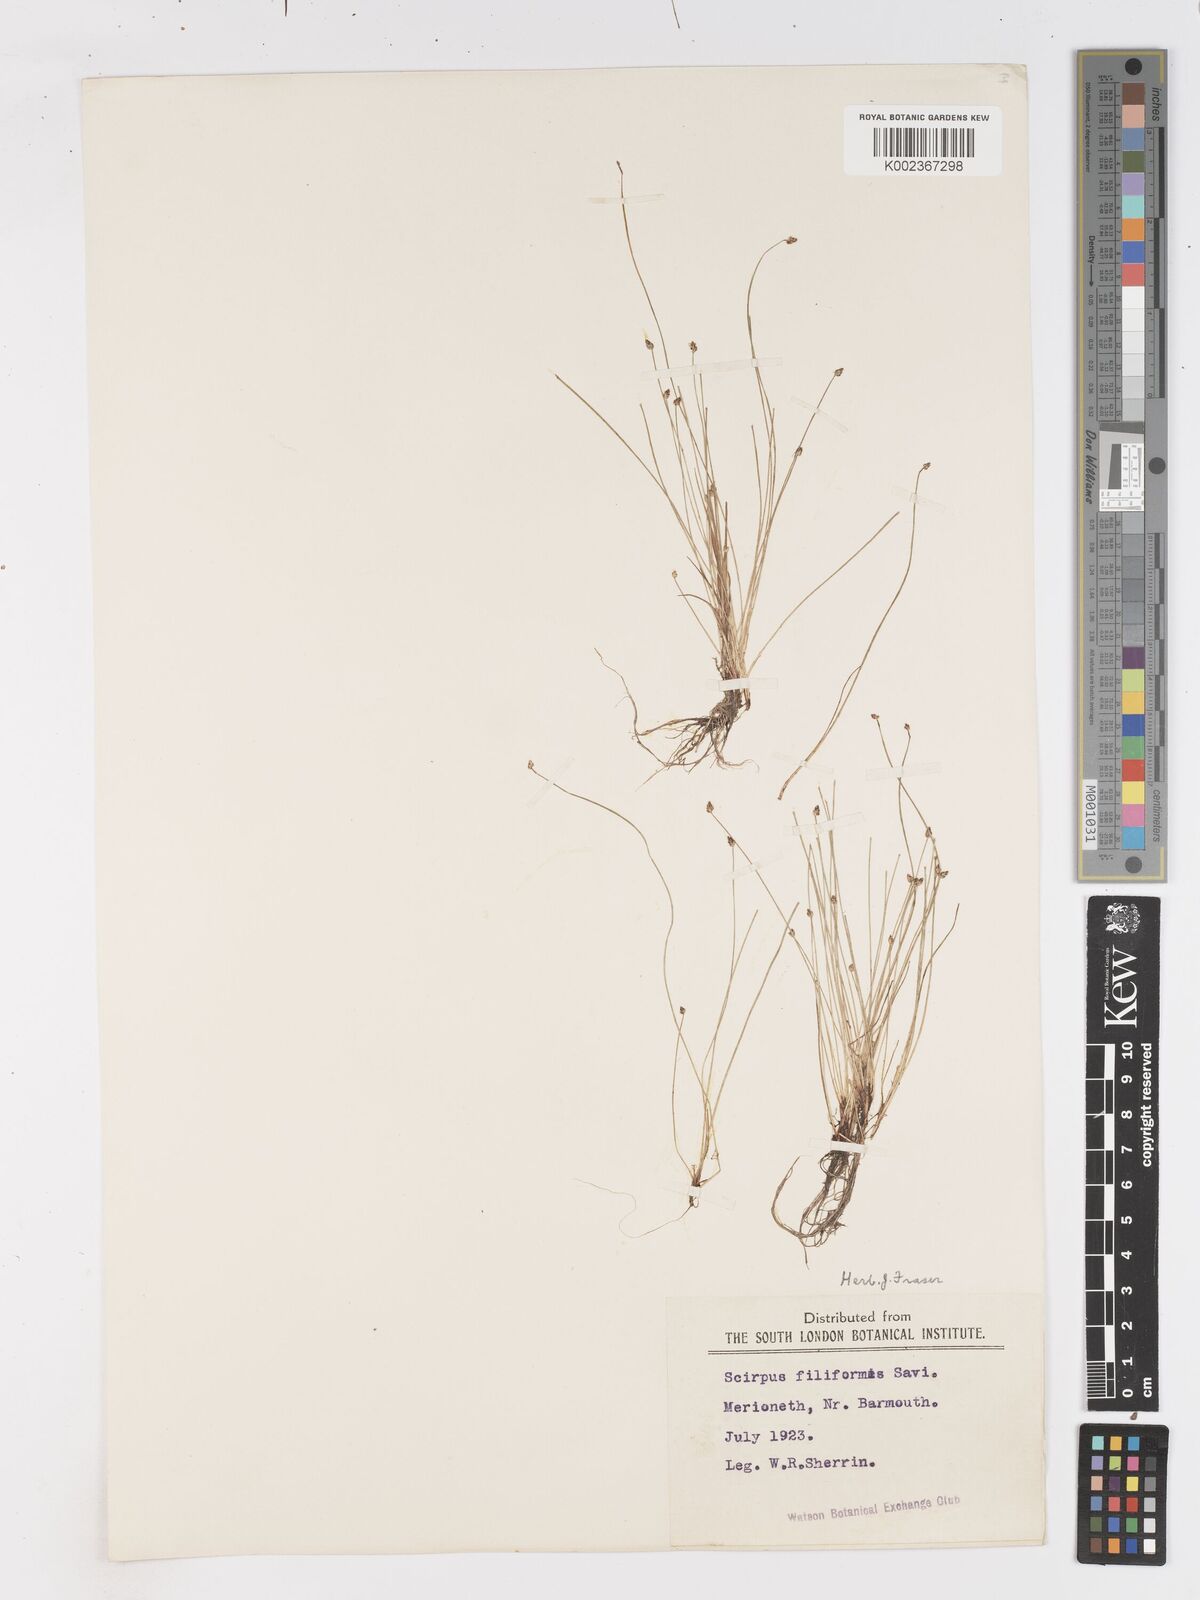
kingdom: Plantae
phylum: Tracheophyta
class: Liliopsida
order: Poales
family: Cyperaceae
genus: Isolepis
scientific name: Isolepis cernua
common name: Slender club-rush
